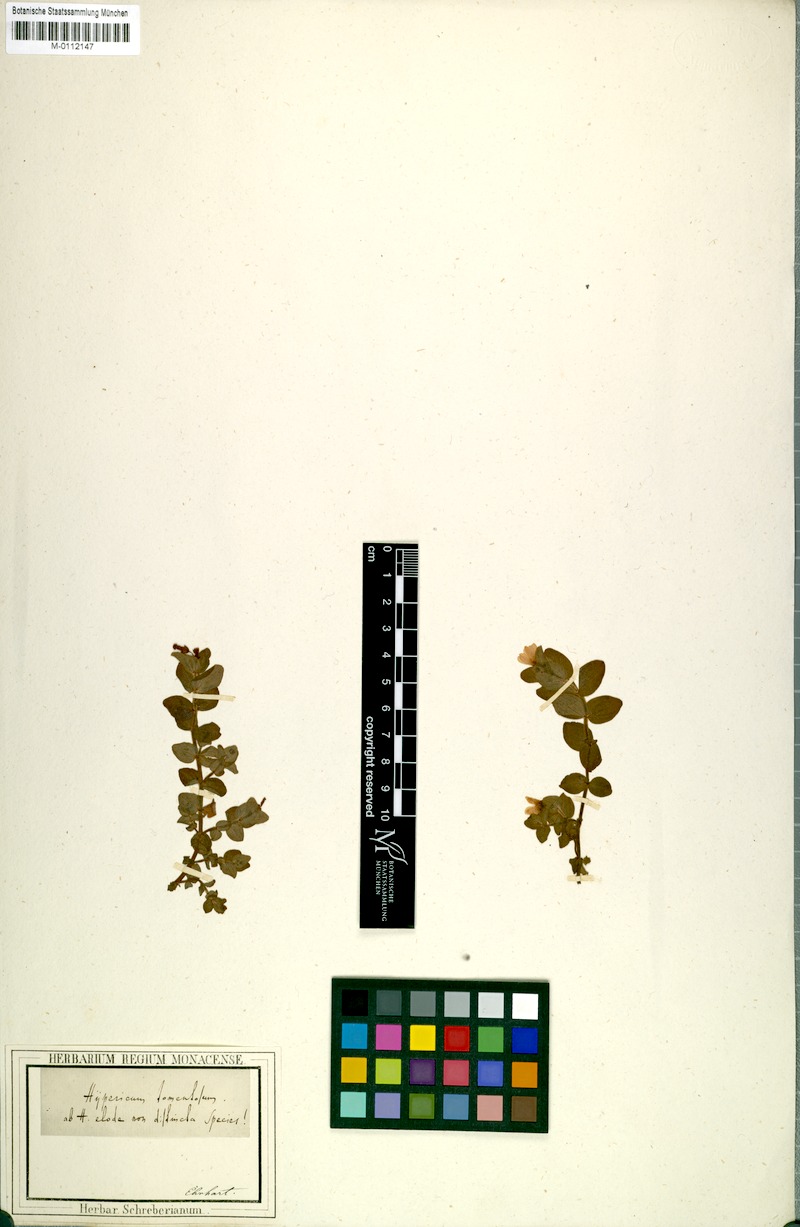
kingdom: Plantae
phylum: Tracheophyta
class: Magnoliopsida
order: Malpighiales
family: Hypericaceae
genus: Hypericum
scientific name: Hypericum tomentosum
